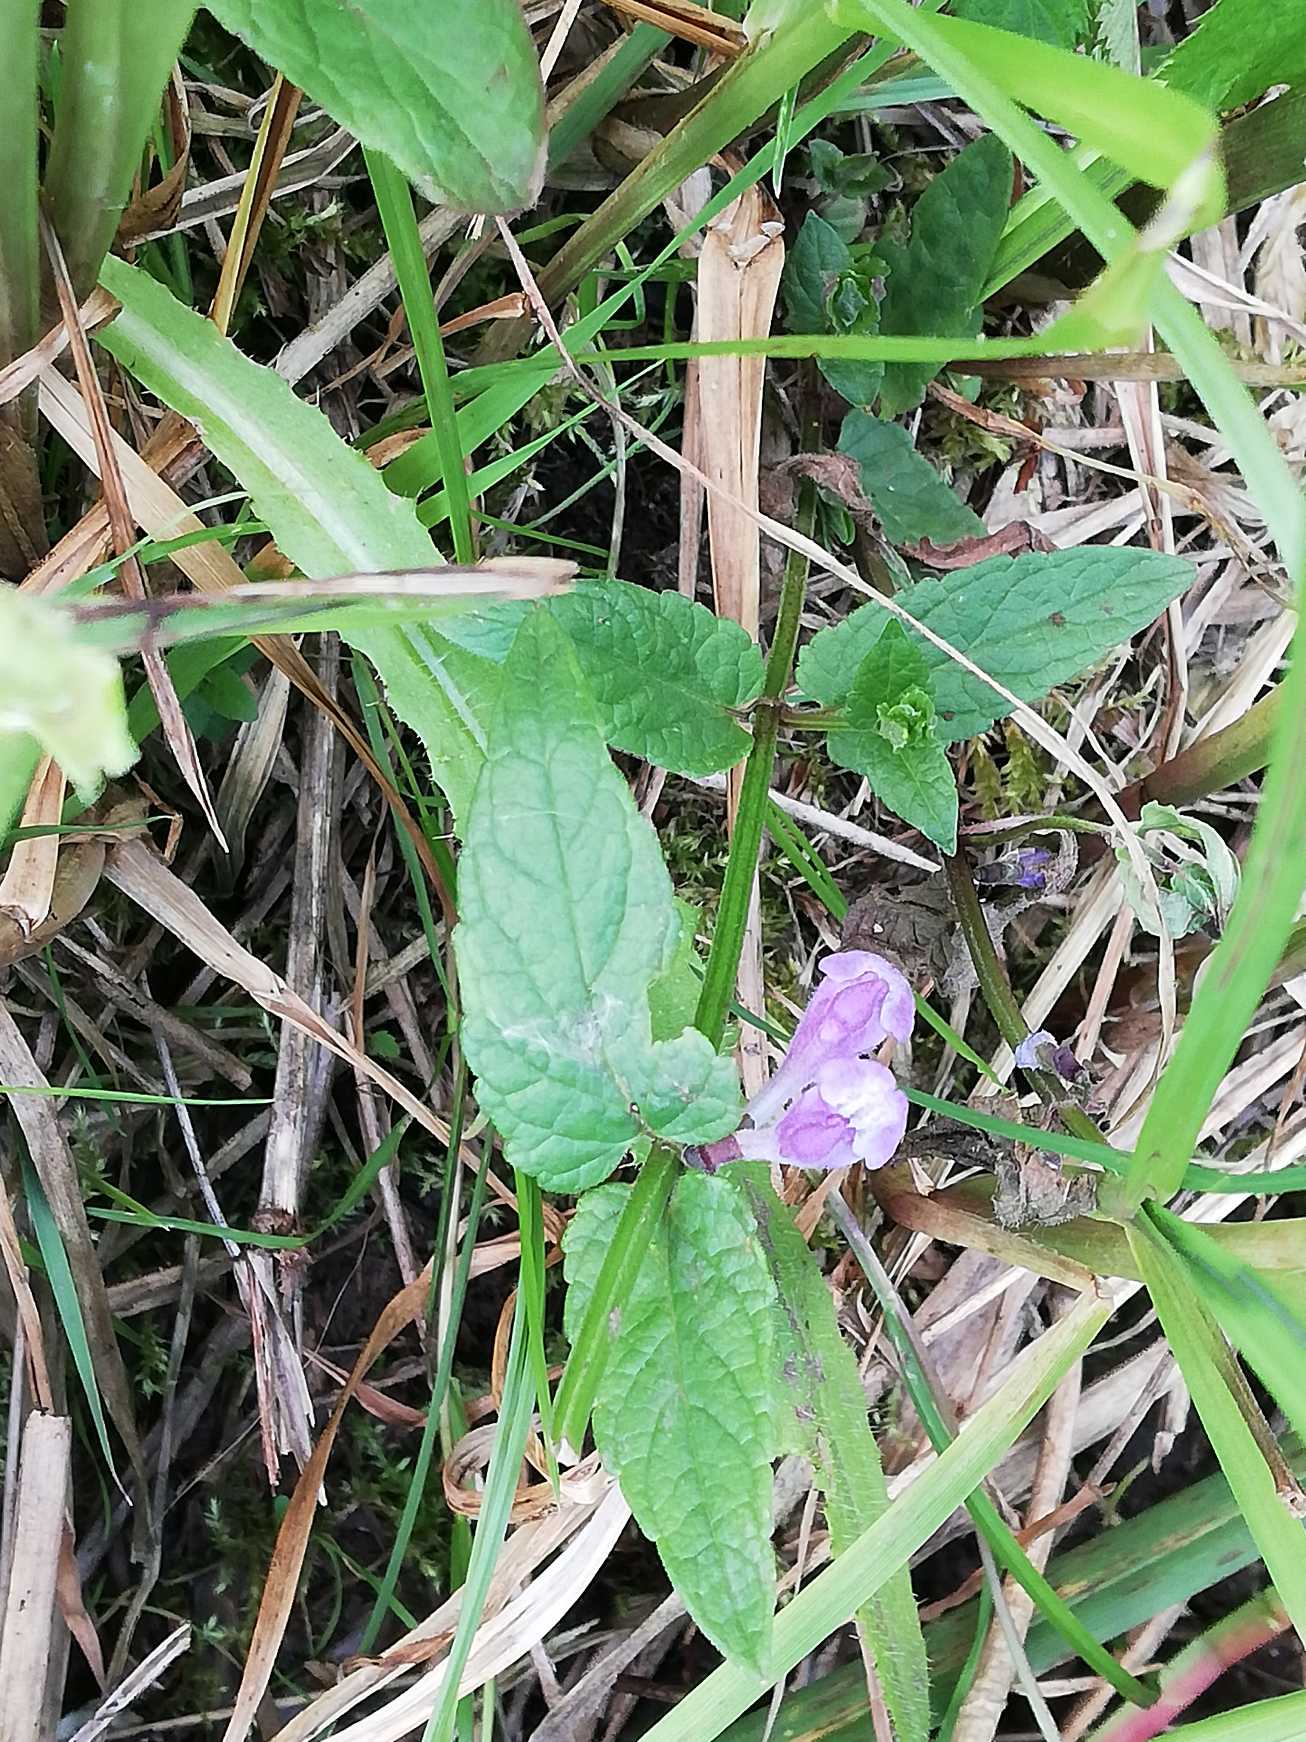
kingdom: Plantae
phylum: Tracheophyta
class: Magnoliopsida
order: Lamiales
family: Lamiaceae
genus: Scutellaria
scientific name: Scutellaria galericulata
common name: Almindelig skjolddrager
